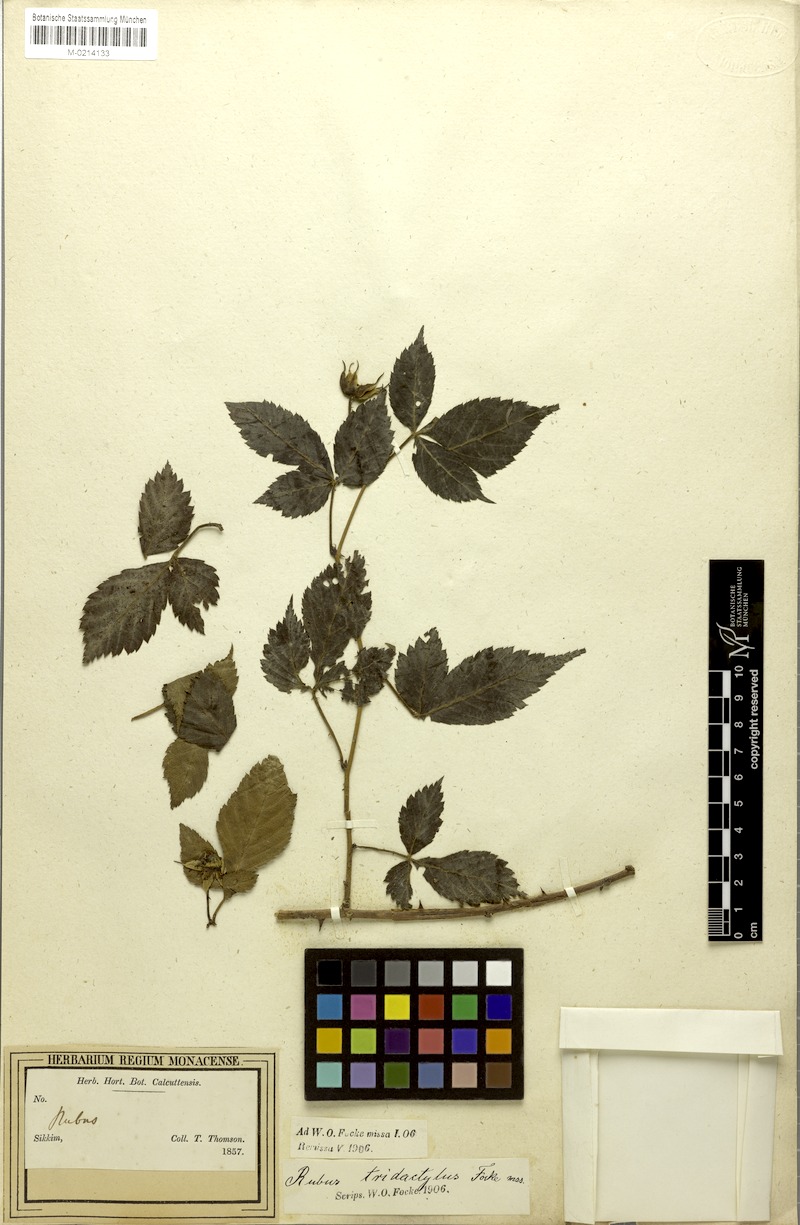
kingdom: Plantae
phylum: Tracheophyta
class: Magnoliopsida
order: Rosales
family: Rosaceae
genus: Rubus
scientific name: Rubus pentagonus
